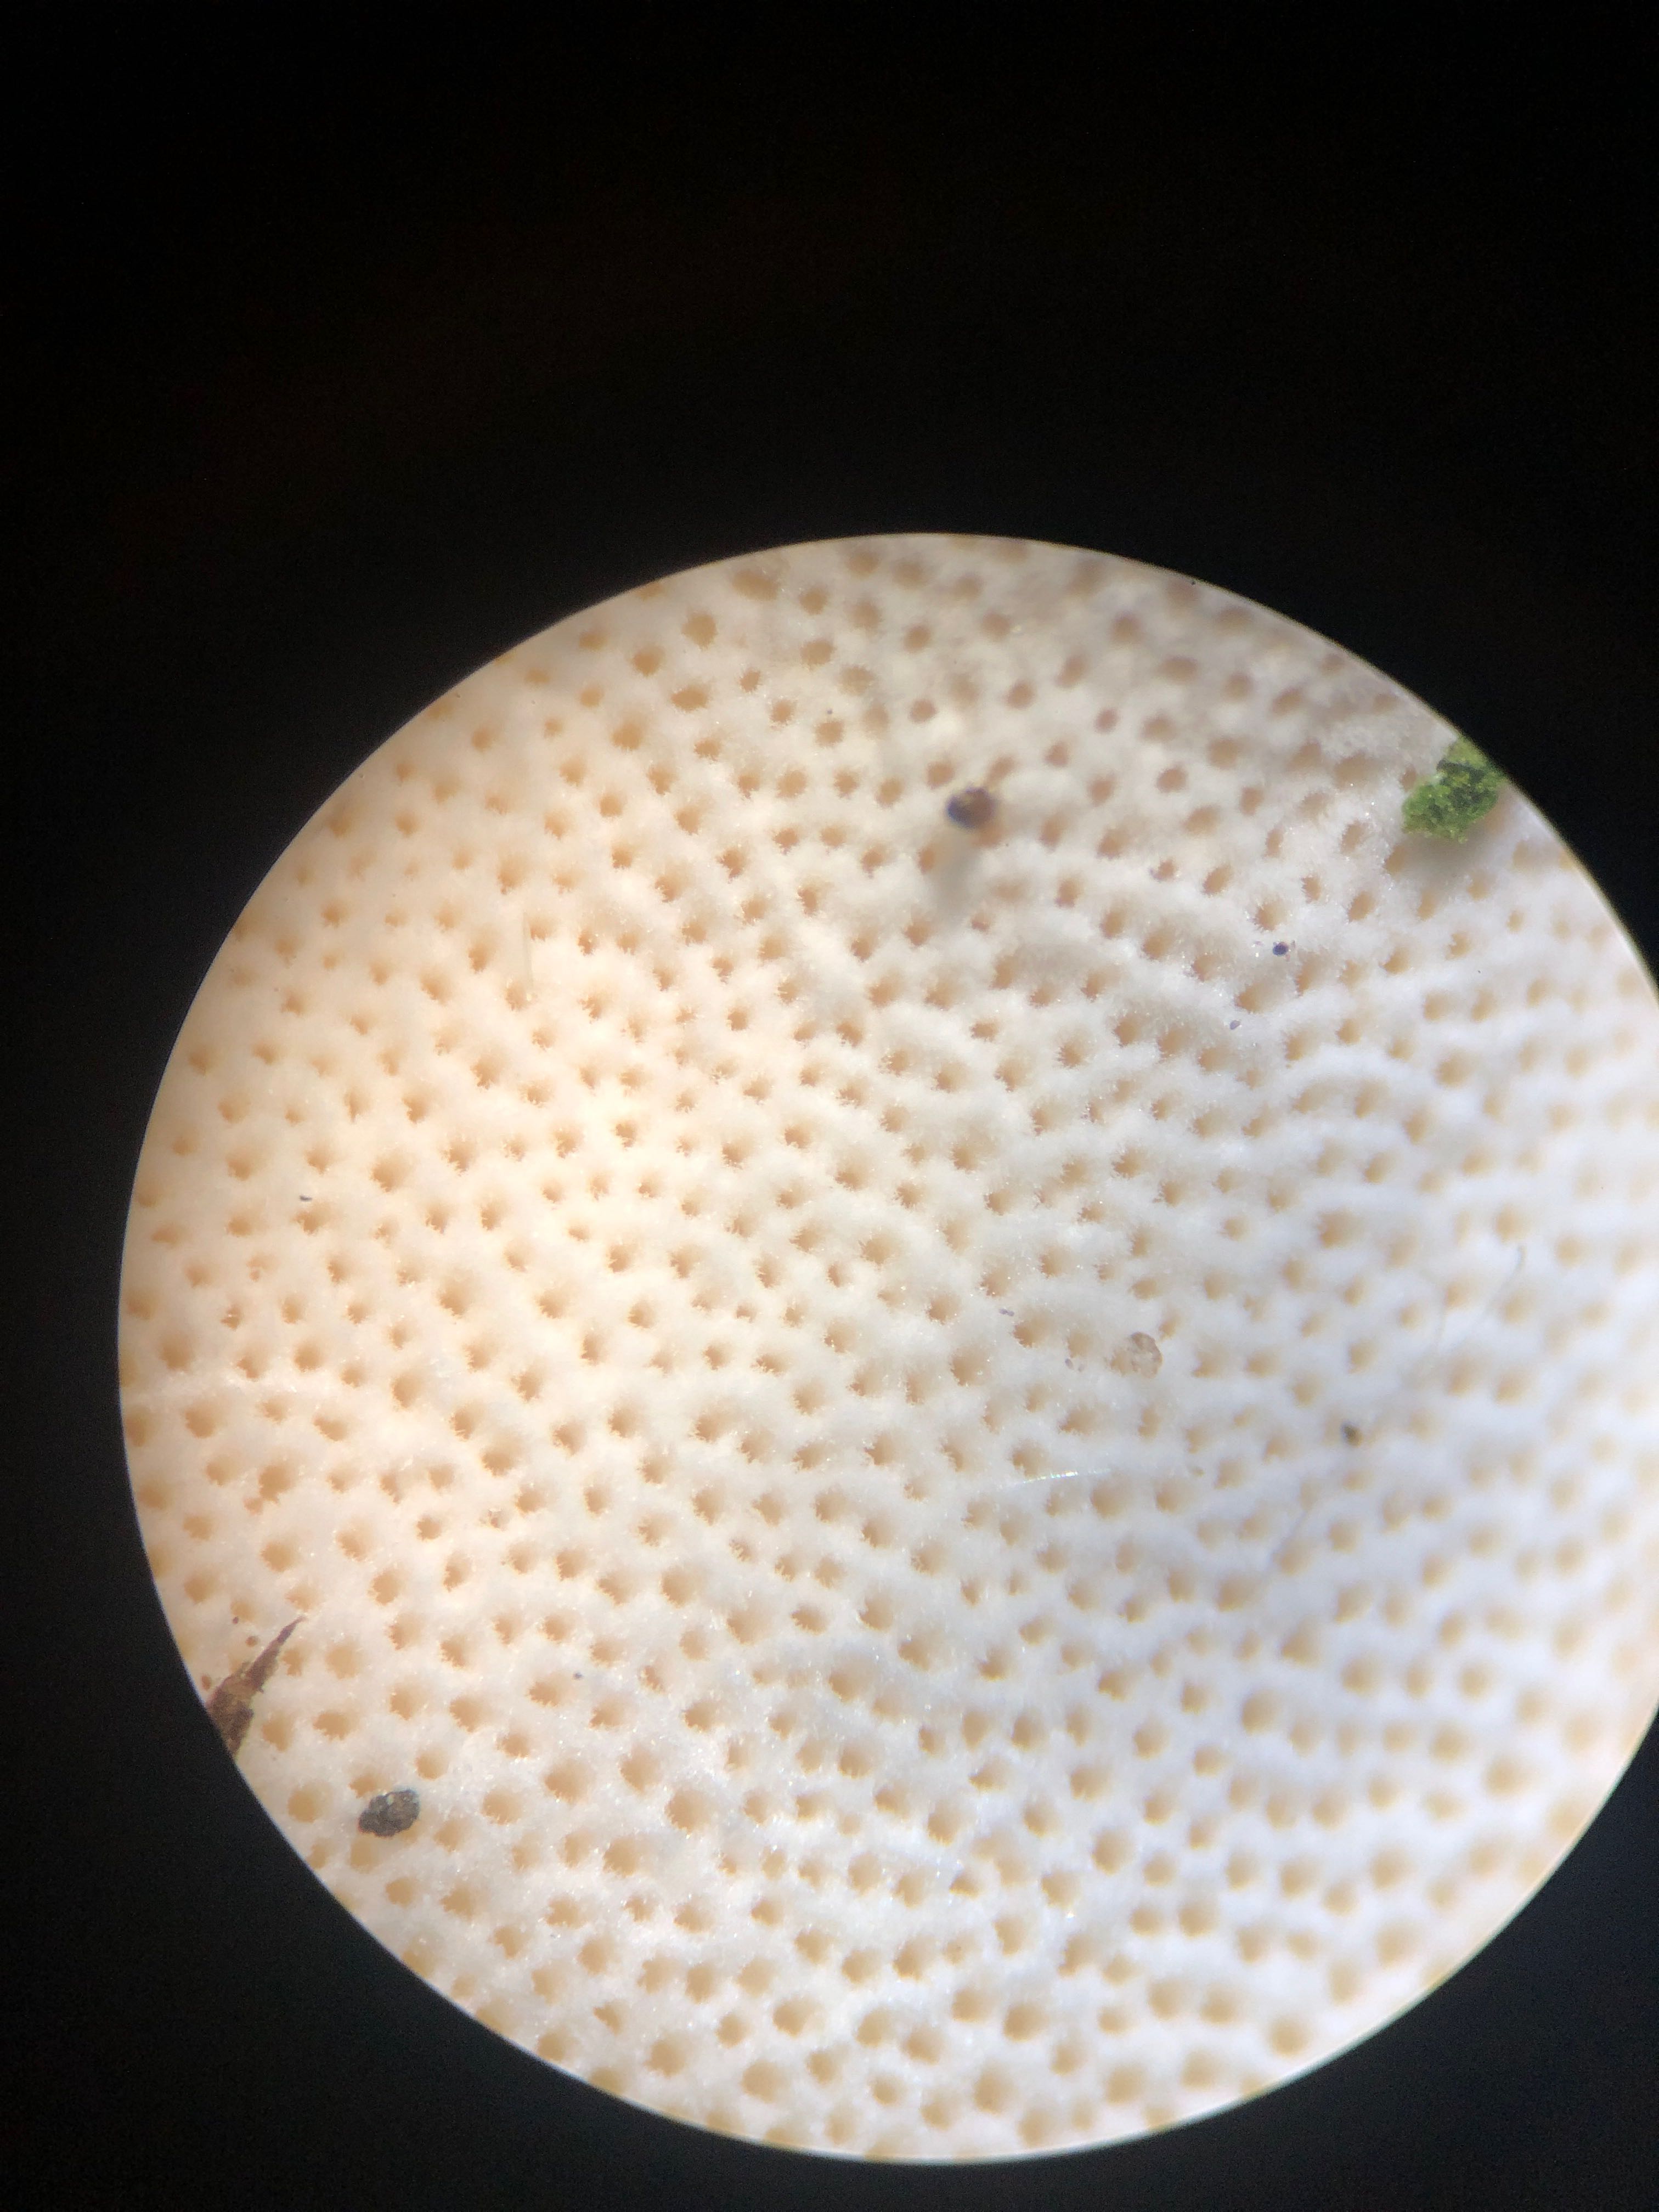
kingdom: Fungi
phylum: Basidiomycota
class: Agaricomycetes
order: Polyporales
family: Polyporaceae
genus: Cerioporus
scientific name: Cerioporus varius
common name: foranderlig stilkporesvamp
